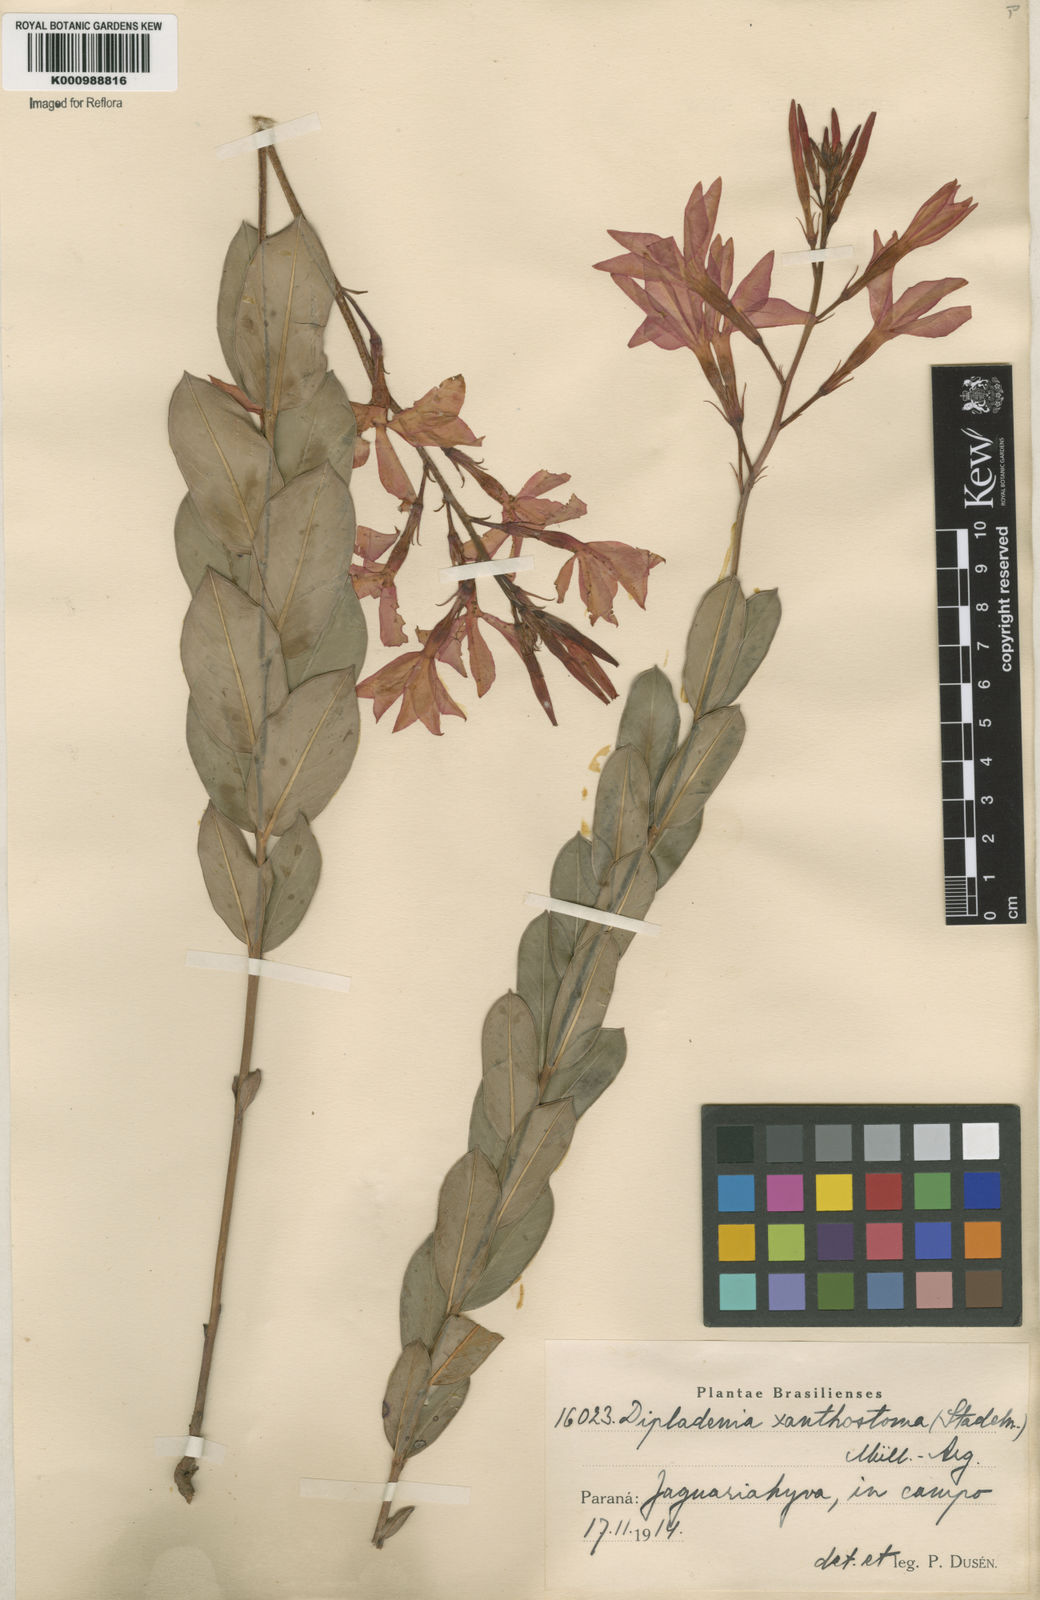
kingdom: Plantae
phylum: Tracheophyta
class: Magnoliopsida
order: Gentianales
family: Apocynaceae
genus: Mandevilla
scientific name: Mandevilla
